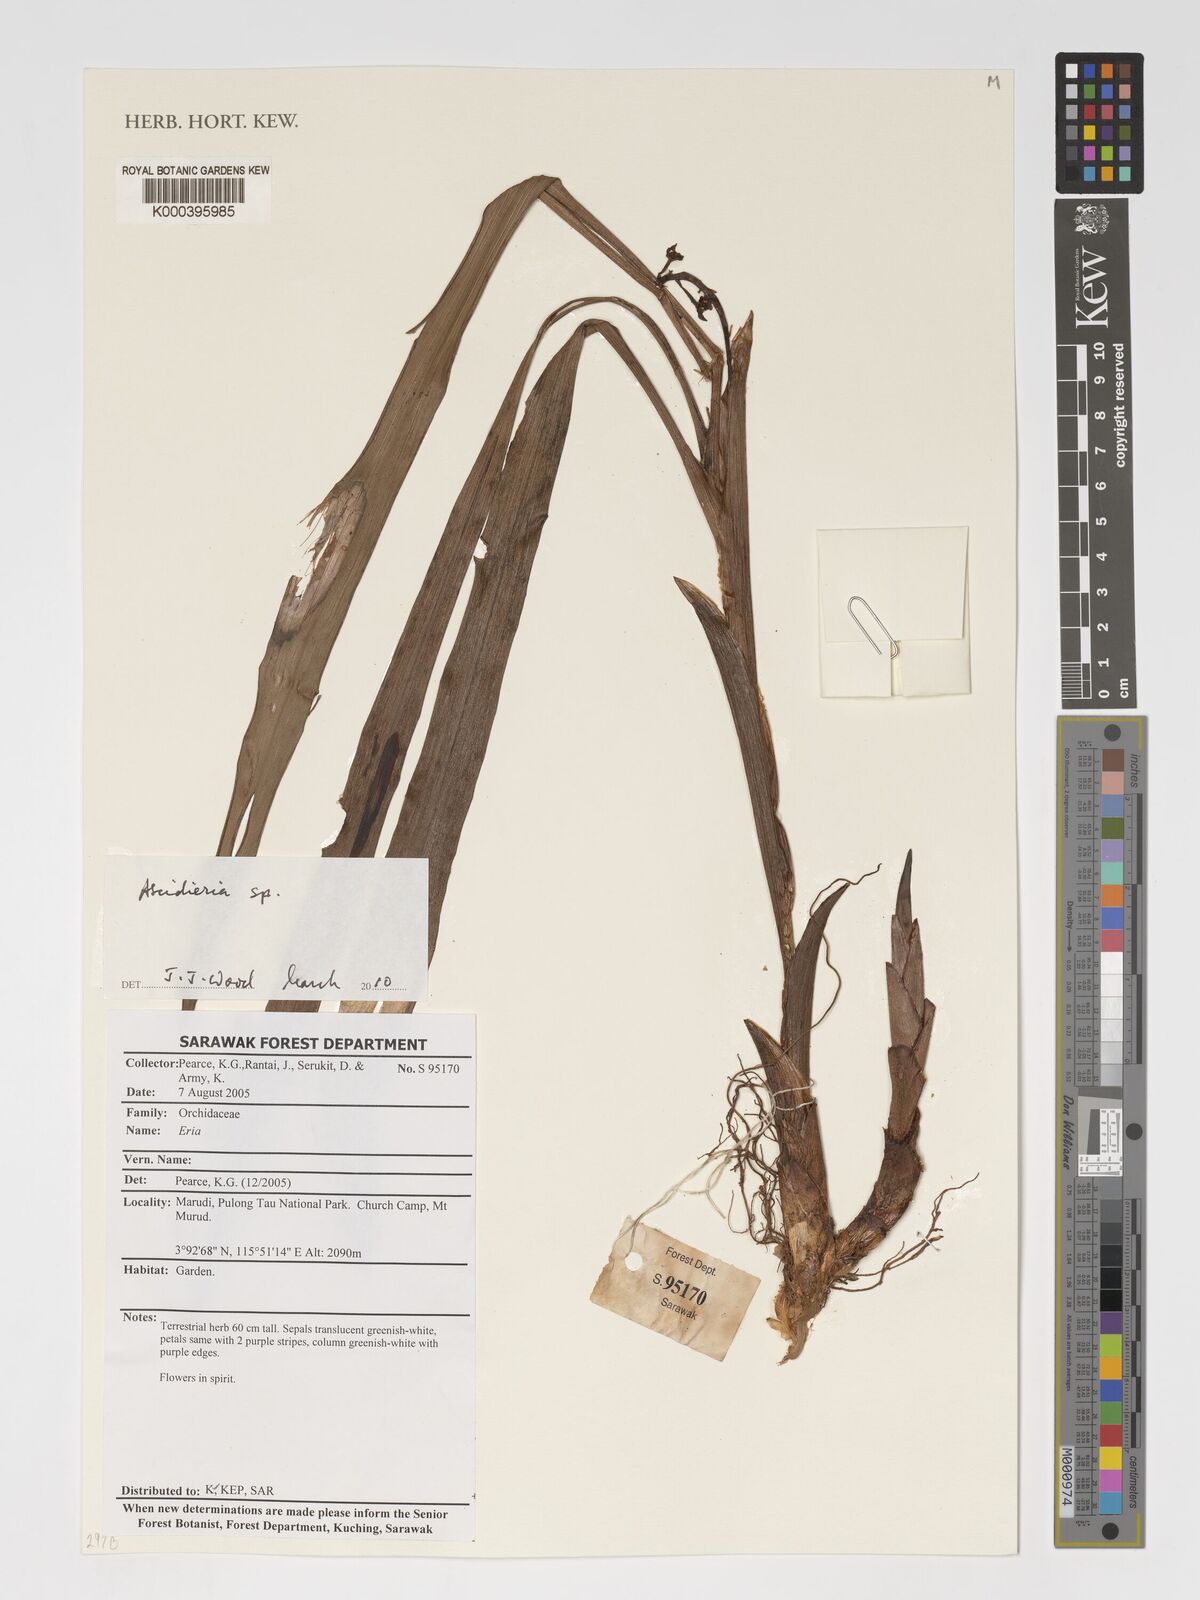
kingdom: Plantae
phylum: Tracheophyta
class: Liliopsida
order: Asparagales
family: Orchidaceae
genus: Ascidieria
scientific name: Ascidieria
